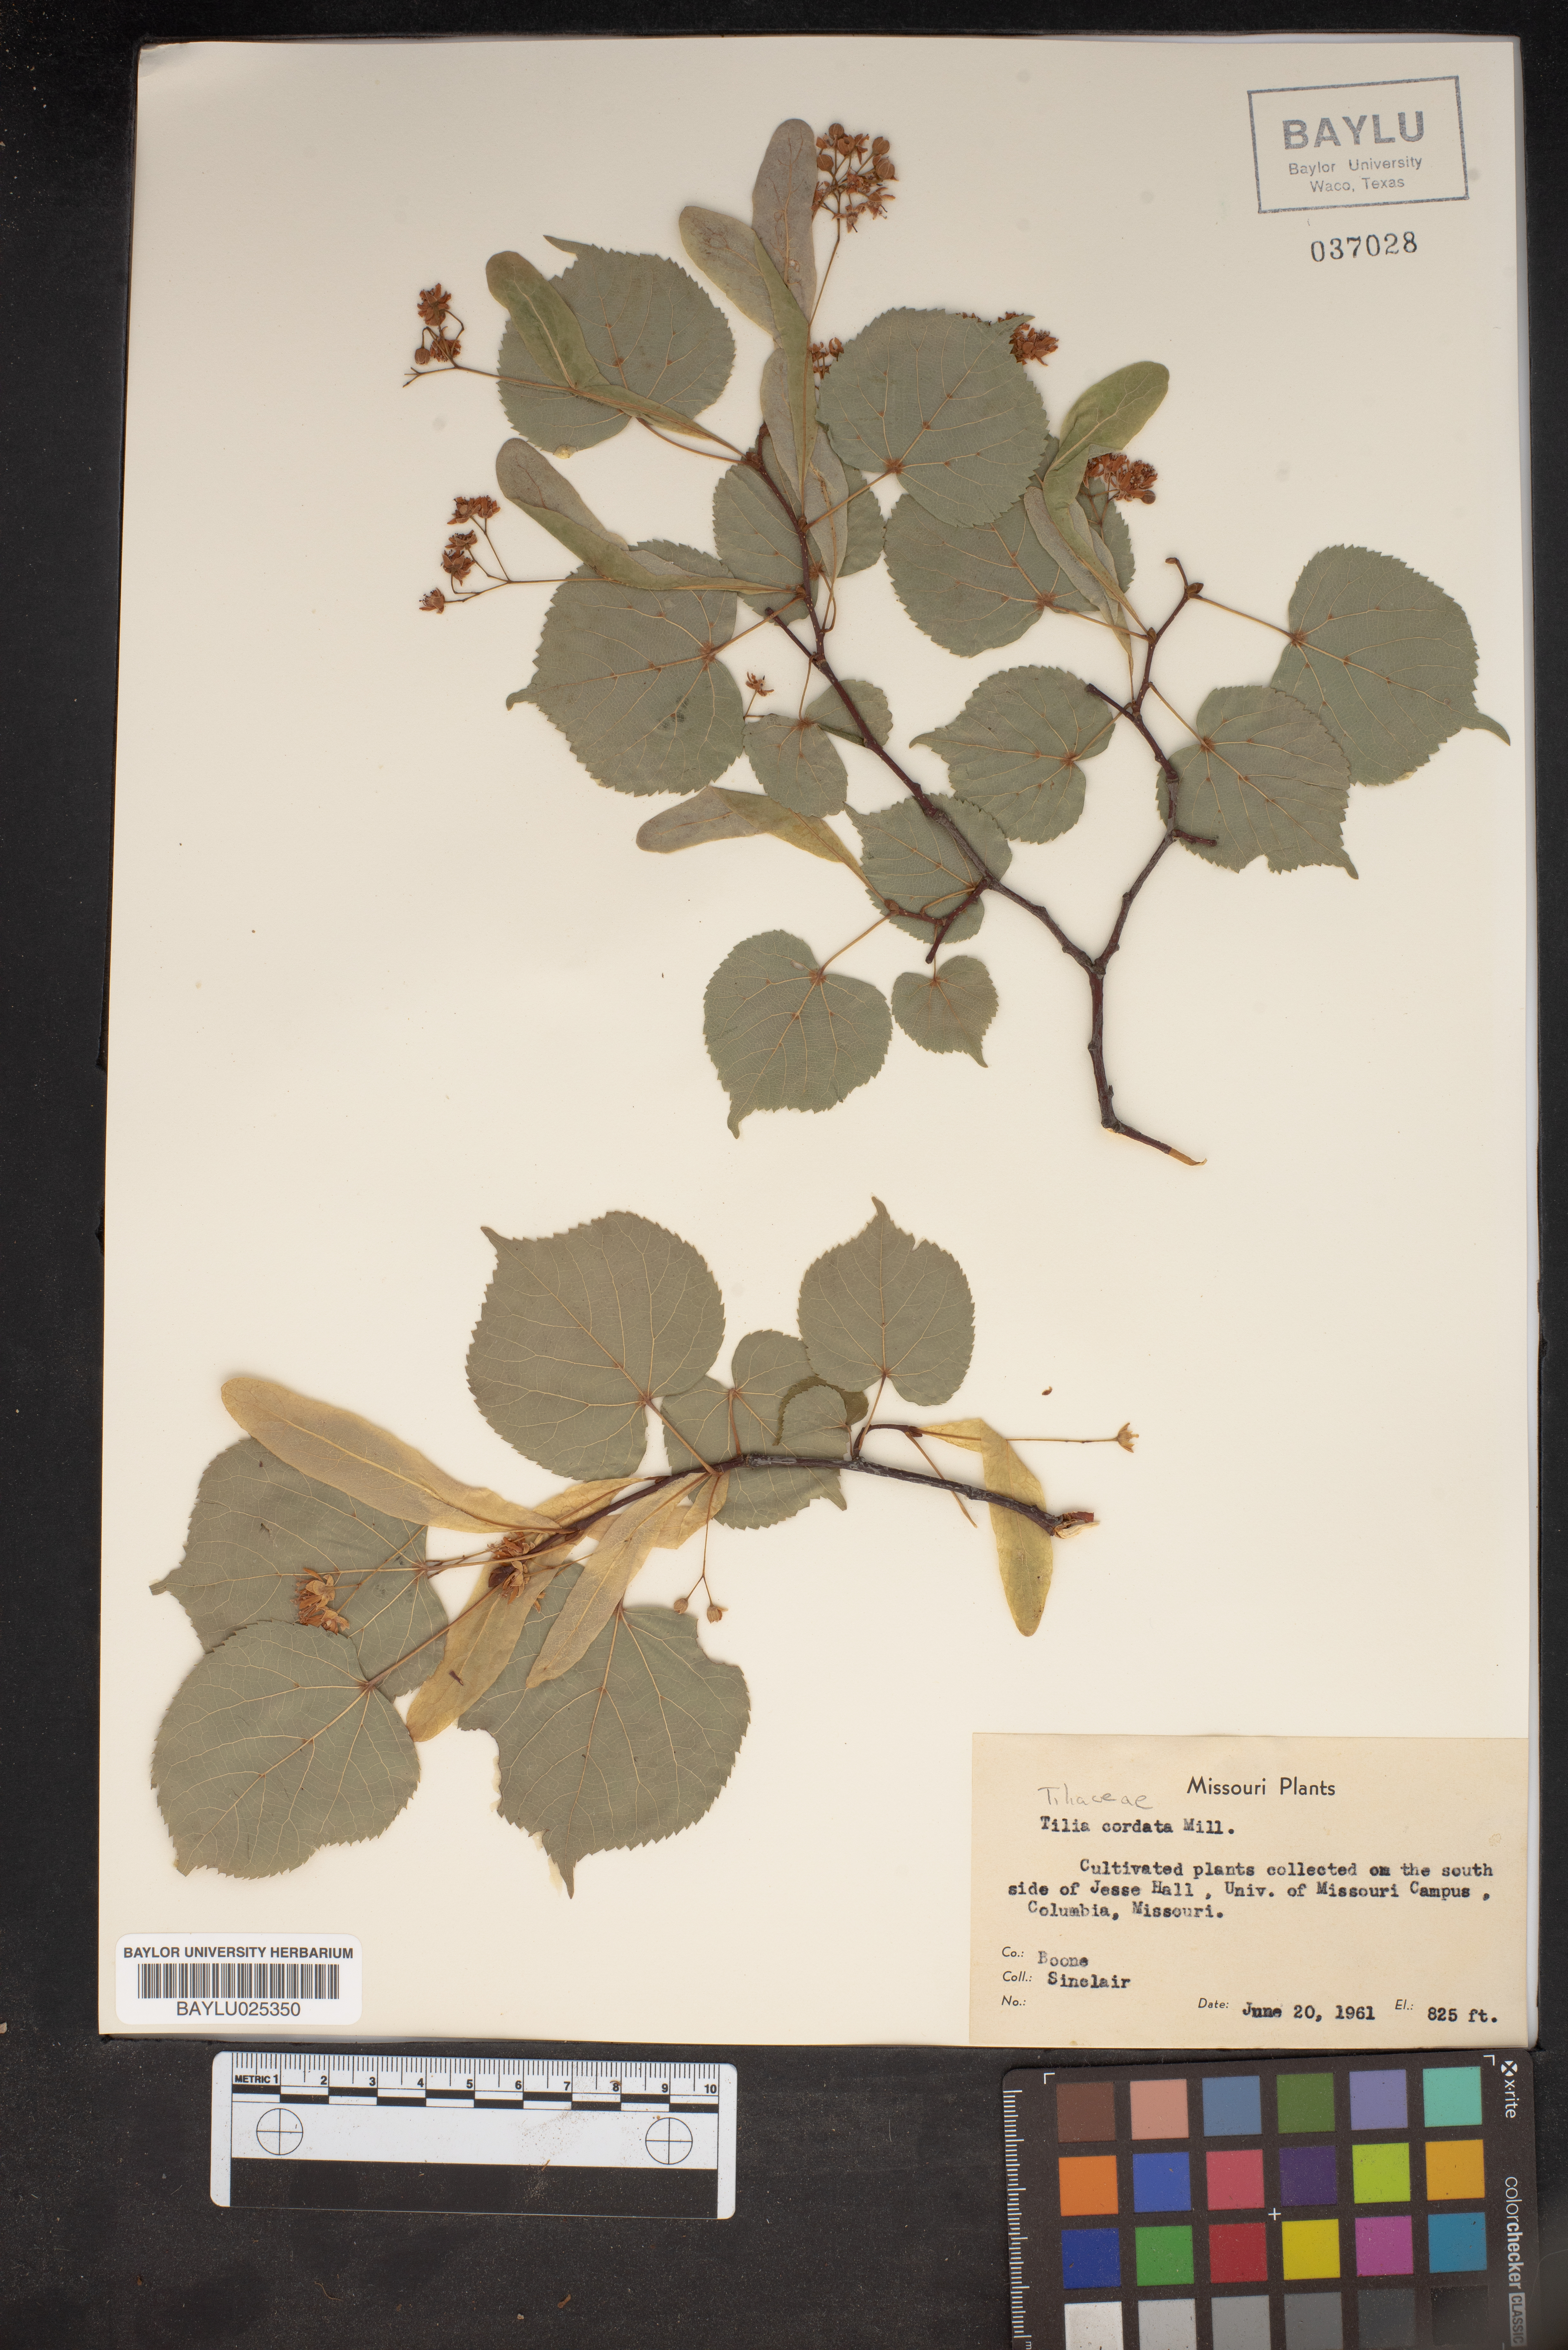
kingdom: Plantae
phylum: Tracheophyta
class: Magnoliopsida
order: Malvales
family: Malvaceae
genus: Tilia
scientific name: Tilia cordata
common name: Small-leaved lime
